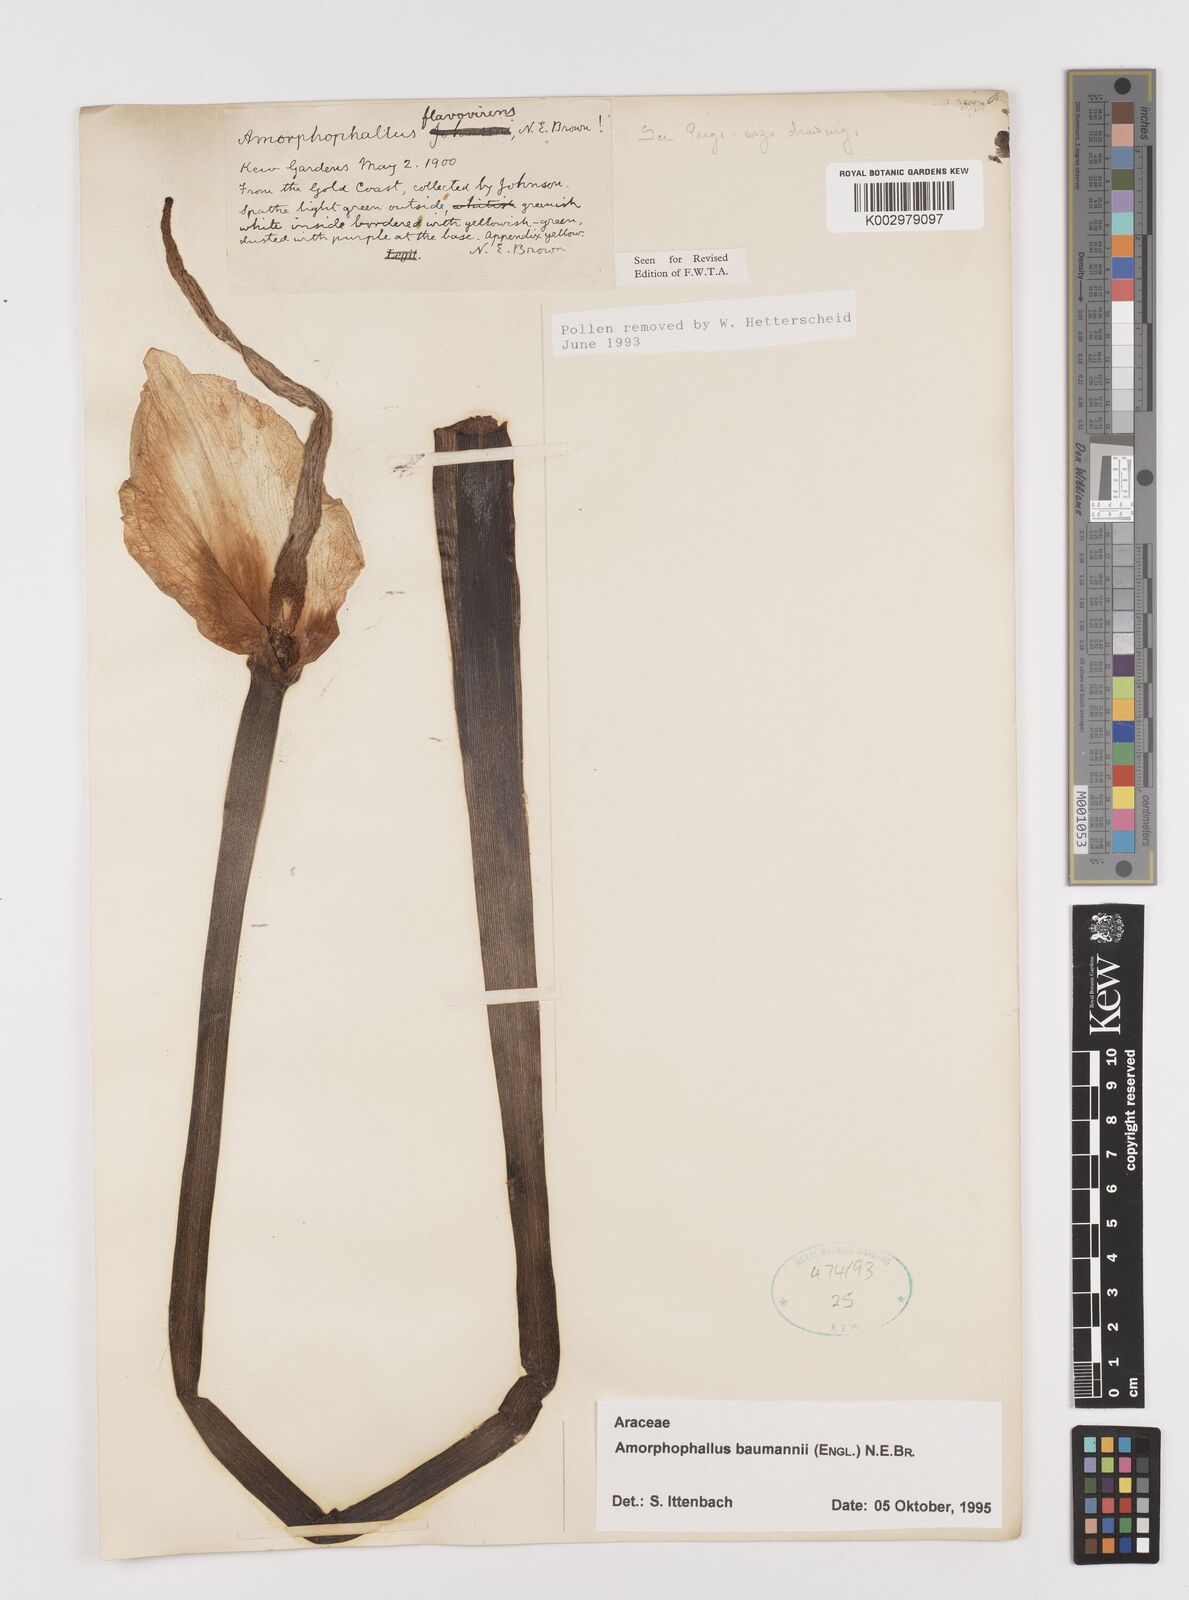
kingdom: Plantae
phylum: Tracheophyta
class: Liliopsida
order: Alismatales
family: Araceae
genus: Amorphophallus
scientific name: Amorphophallus baumannii
